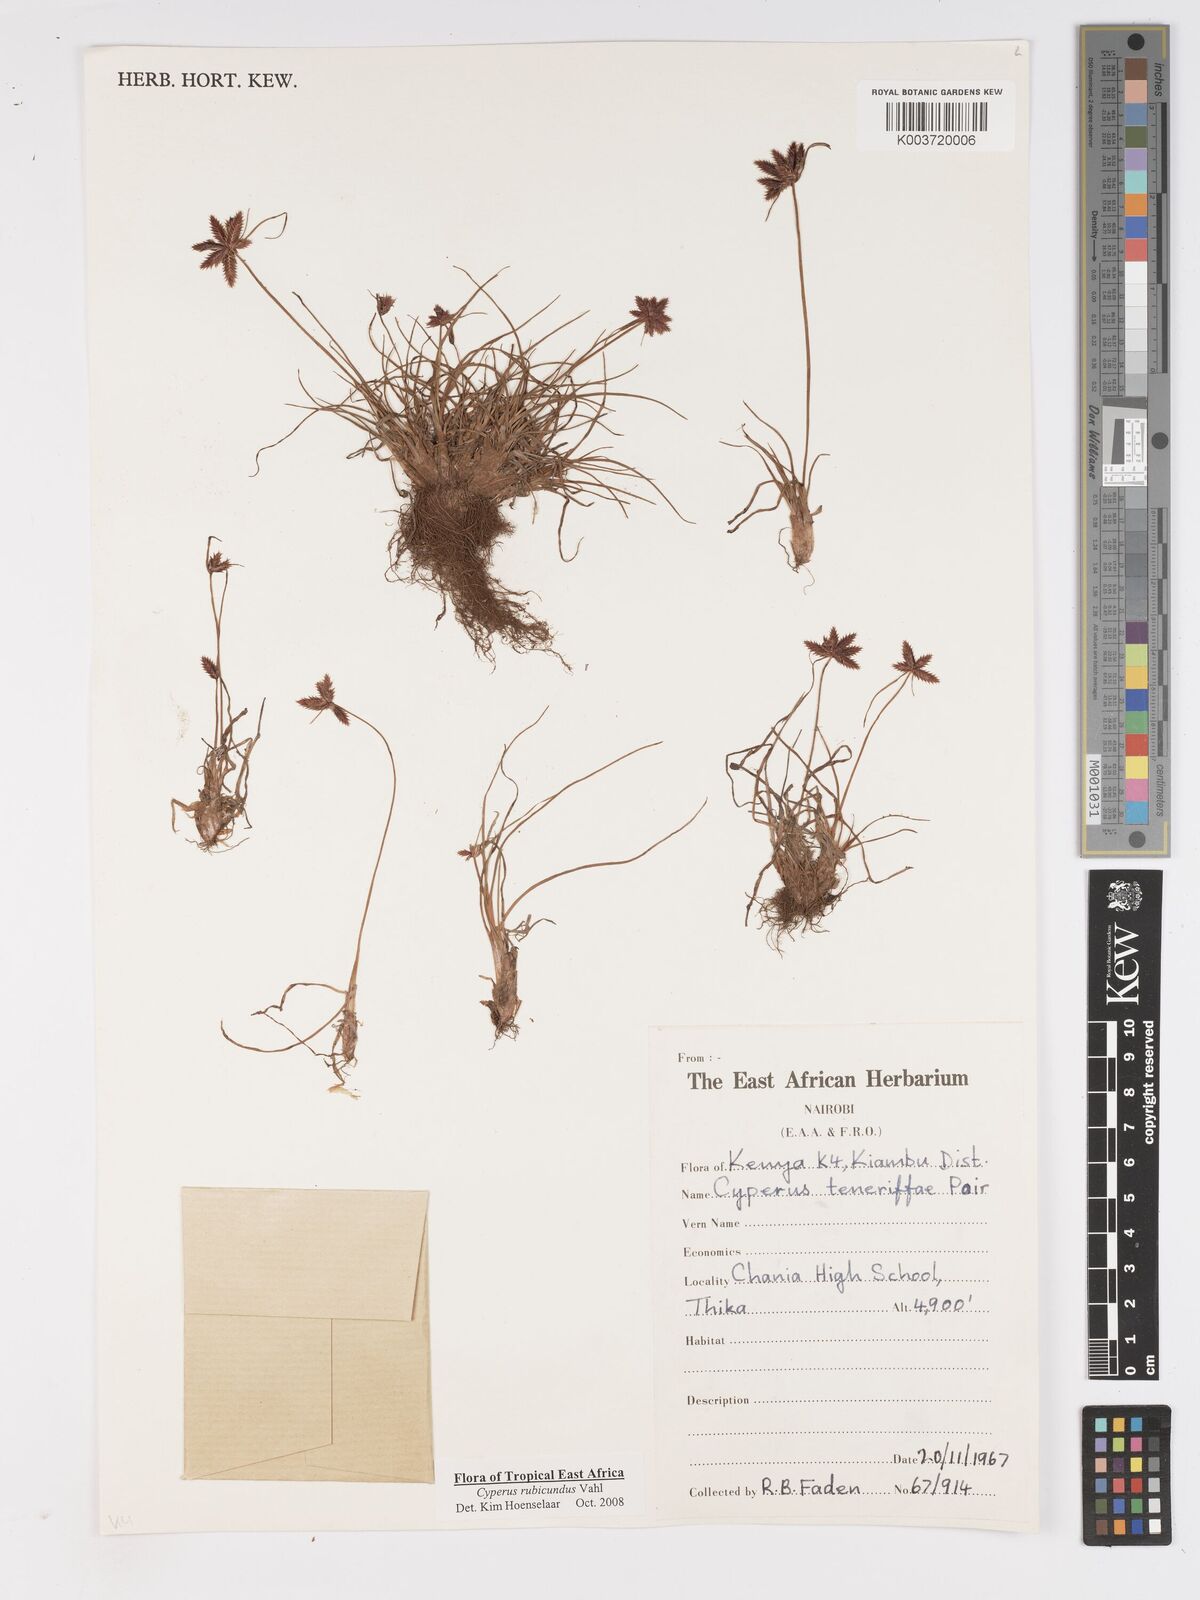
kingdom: Plantae
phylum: Tracheophyta
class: Liliopsida
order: Poales
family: Cyperaceae
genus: Cyperus
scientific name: Cyperus rubicundus
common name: Coco-grass
